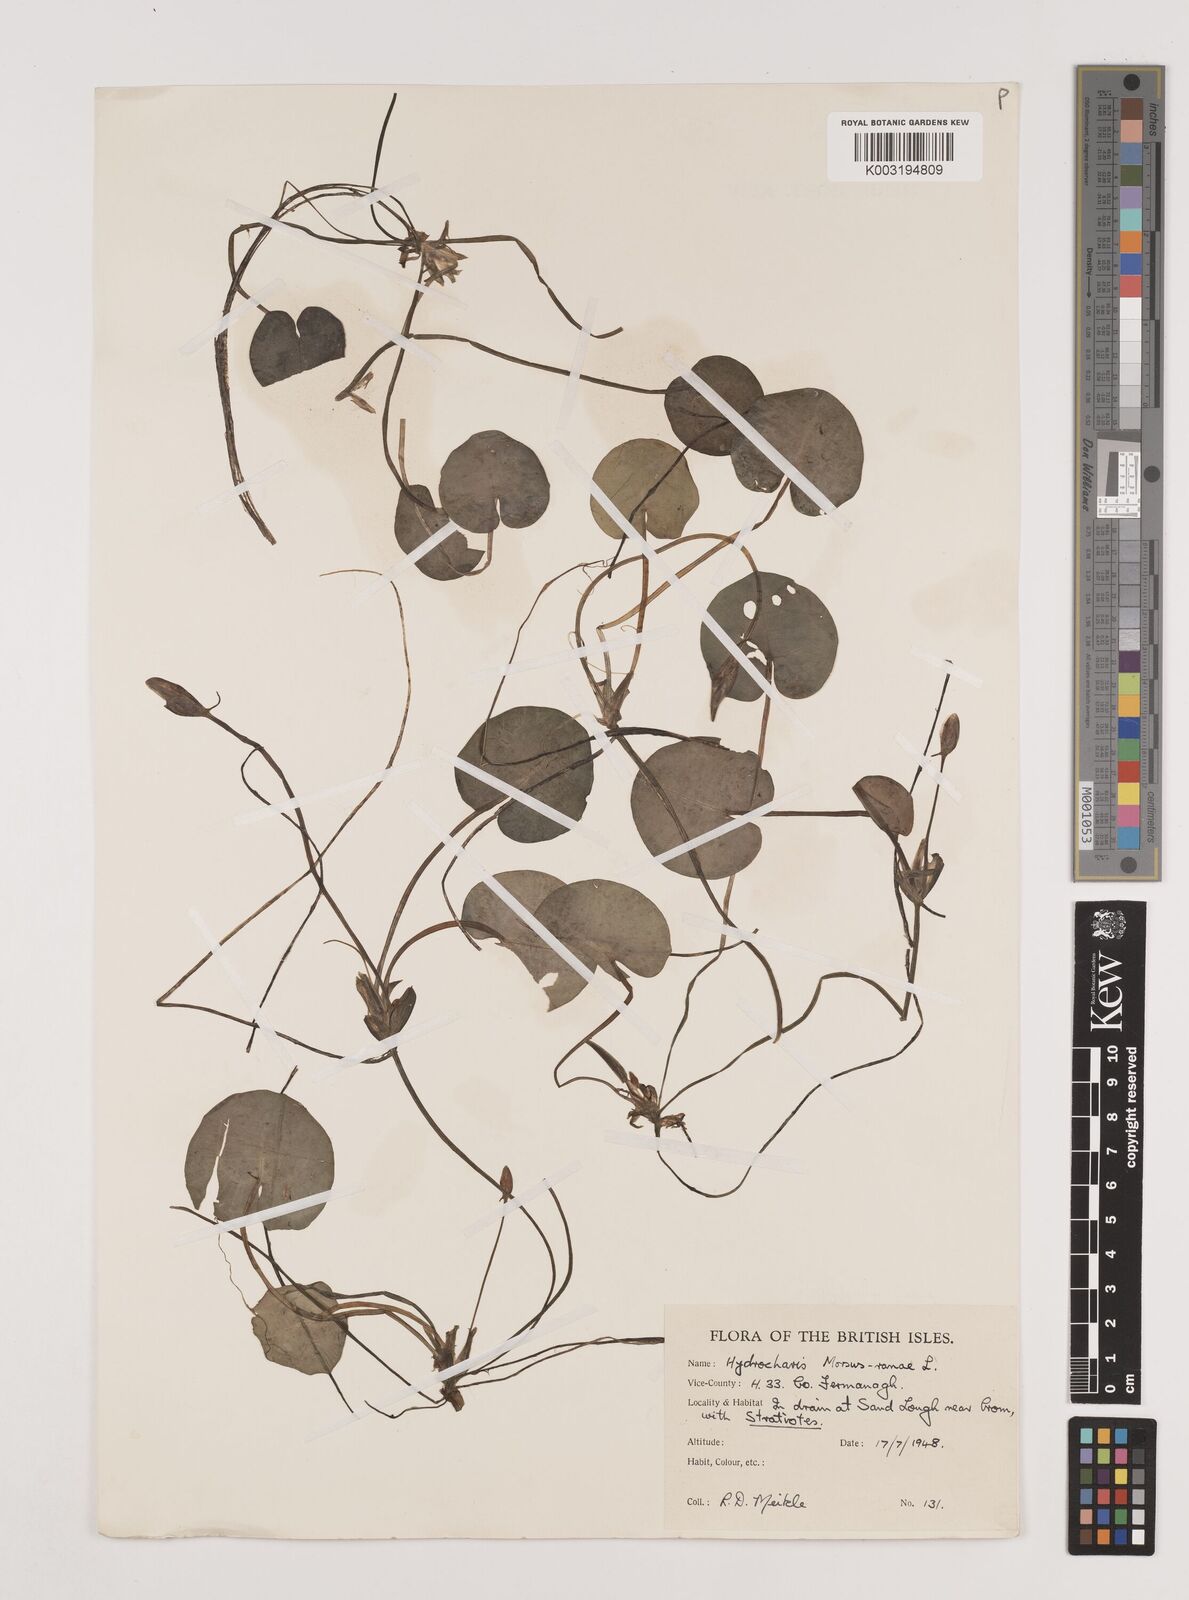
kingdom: Plantae
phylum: Tracheophyta
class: Liliopsida
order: Alismatales
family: Hydrocharitaceae
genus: Hydrocharis
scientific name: Hydrocharis morsus-ranae
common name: Frogbit
